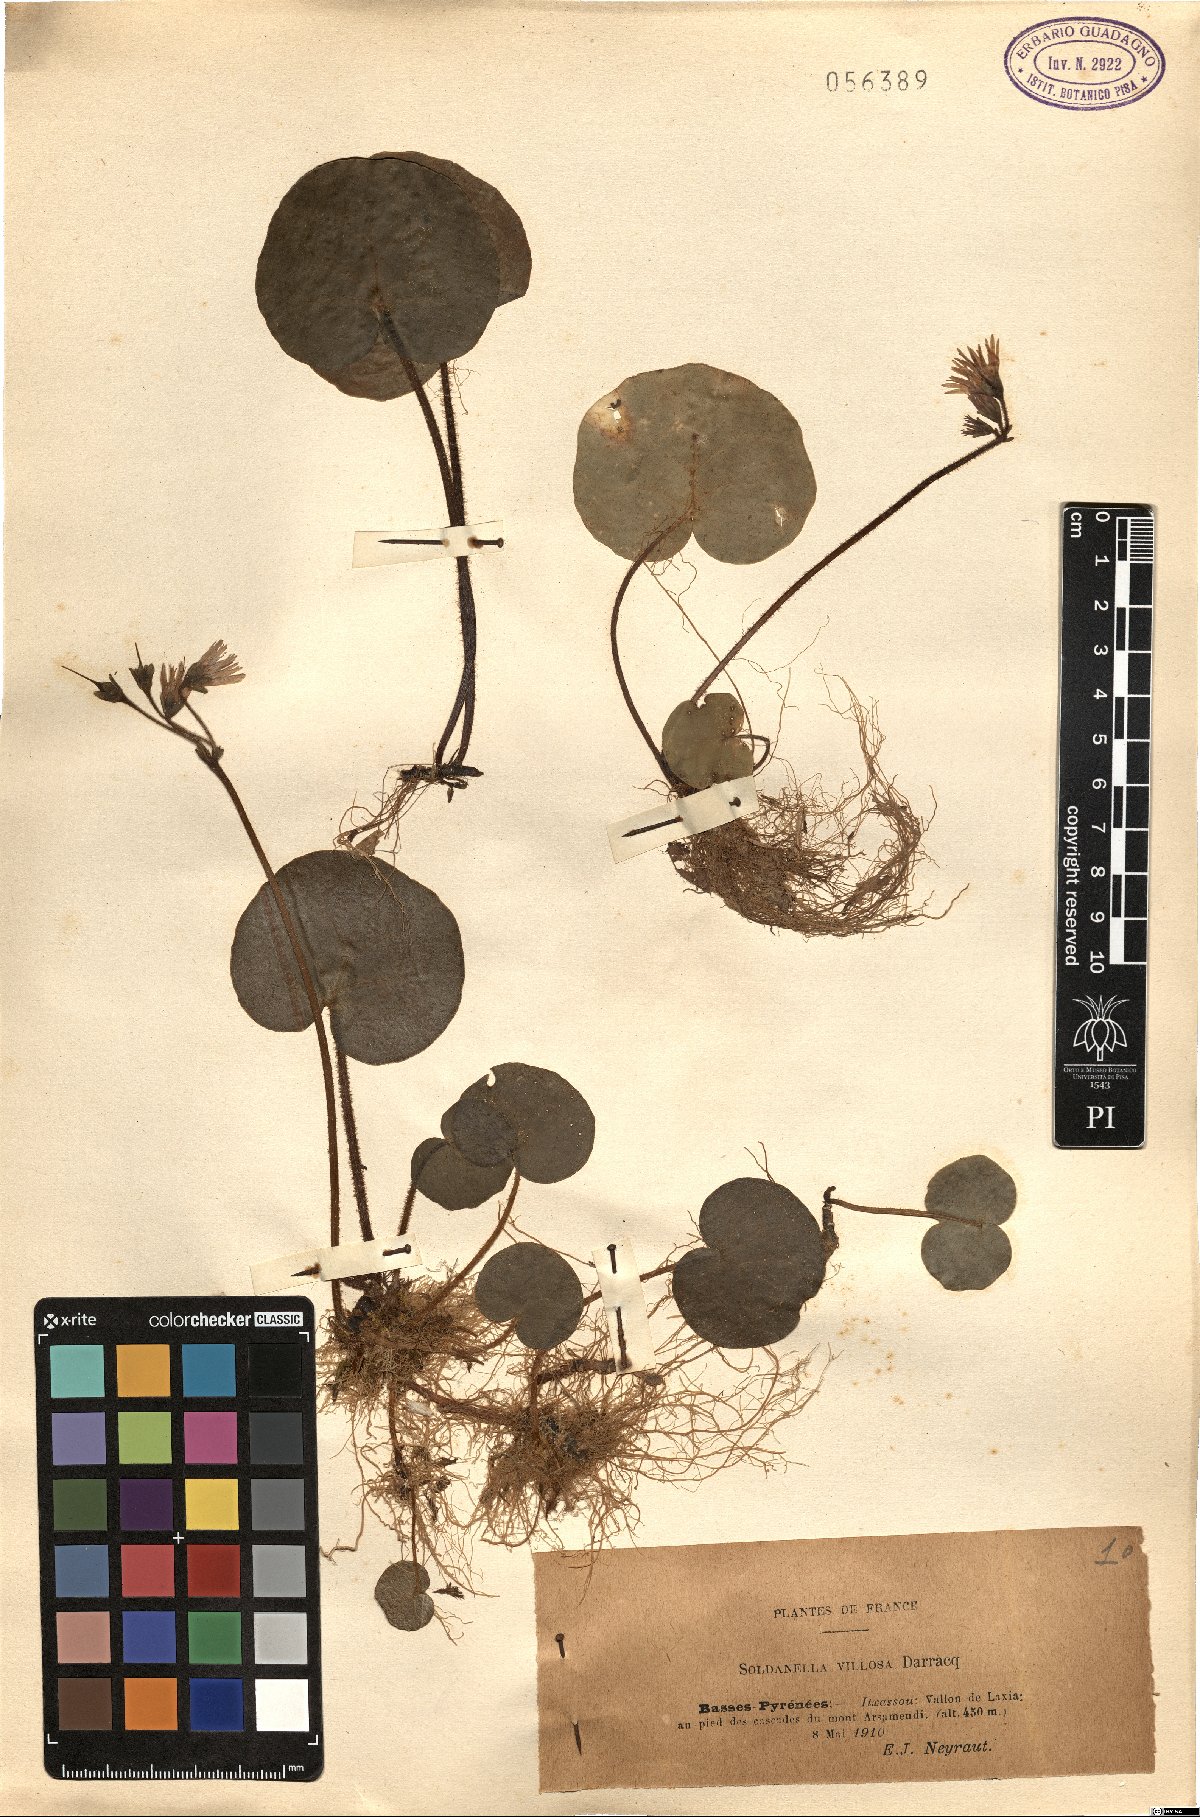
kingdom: Plantae
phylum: Tracheophyta
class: Magnoliopsida
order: Ericales
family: Primulaceae
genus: Soldanella
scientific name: Soldanella villosa
